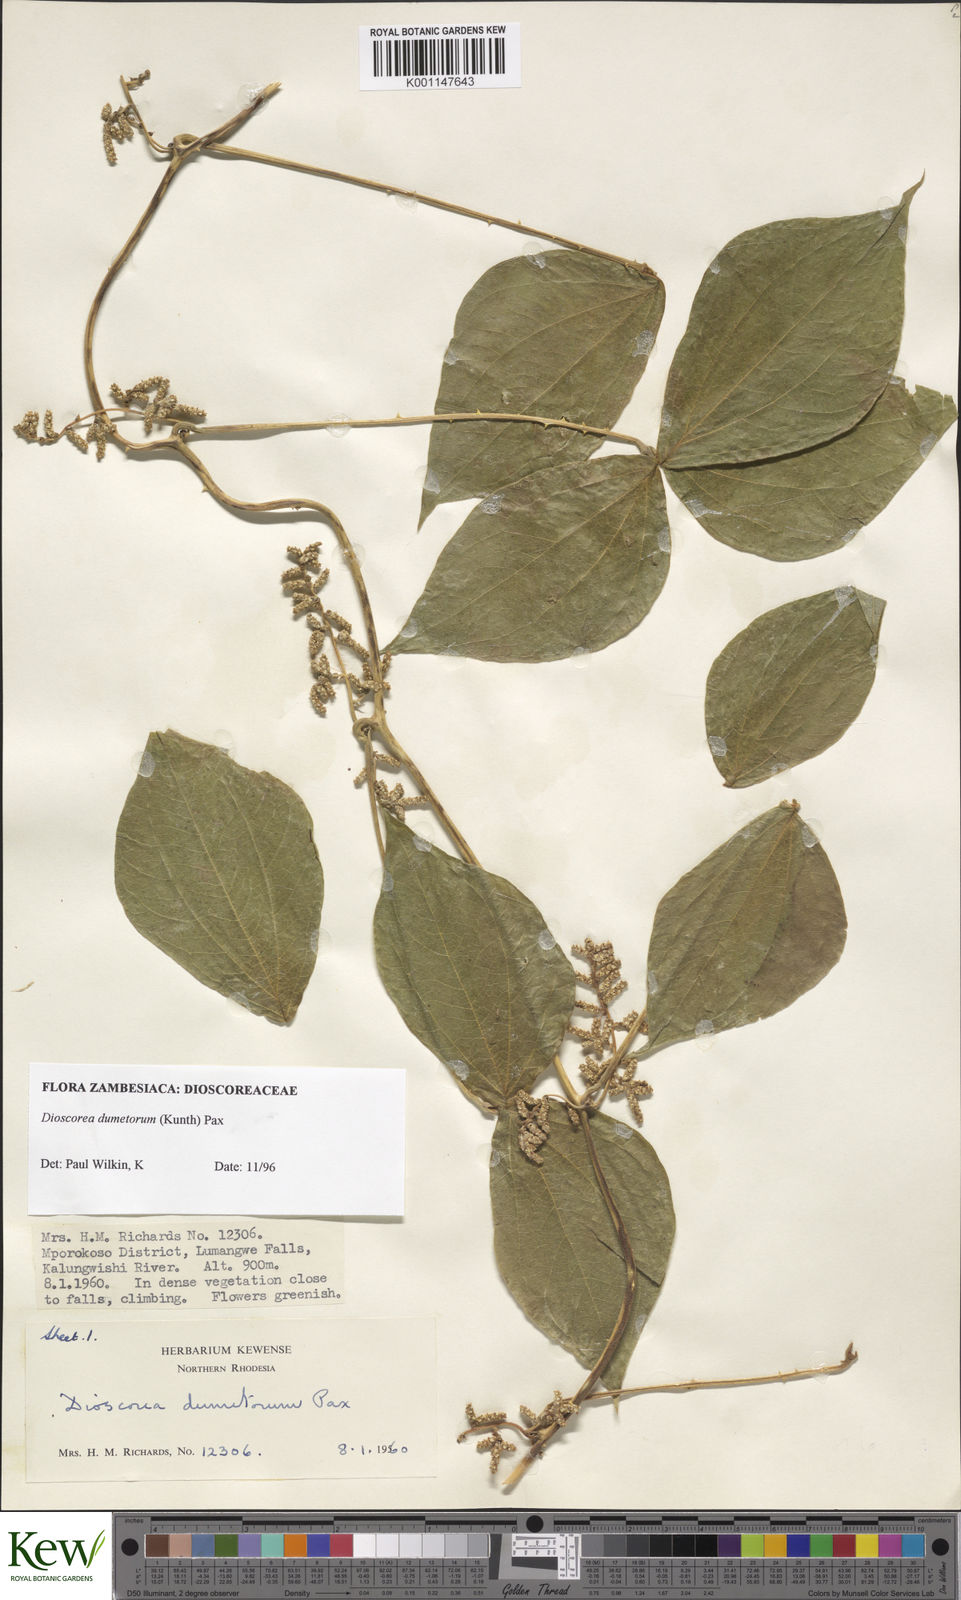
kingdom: Plantae
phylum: Tracheophyta
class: Liliopsida
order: Dioscoreales
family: Dioscoreaceae
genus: Dioscorea
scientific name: Dioscorea dumetorum
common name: African bitter yam
